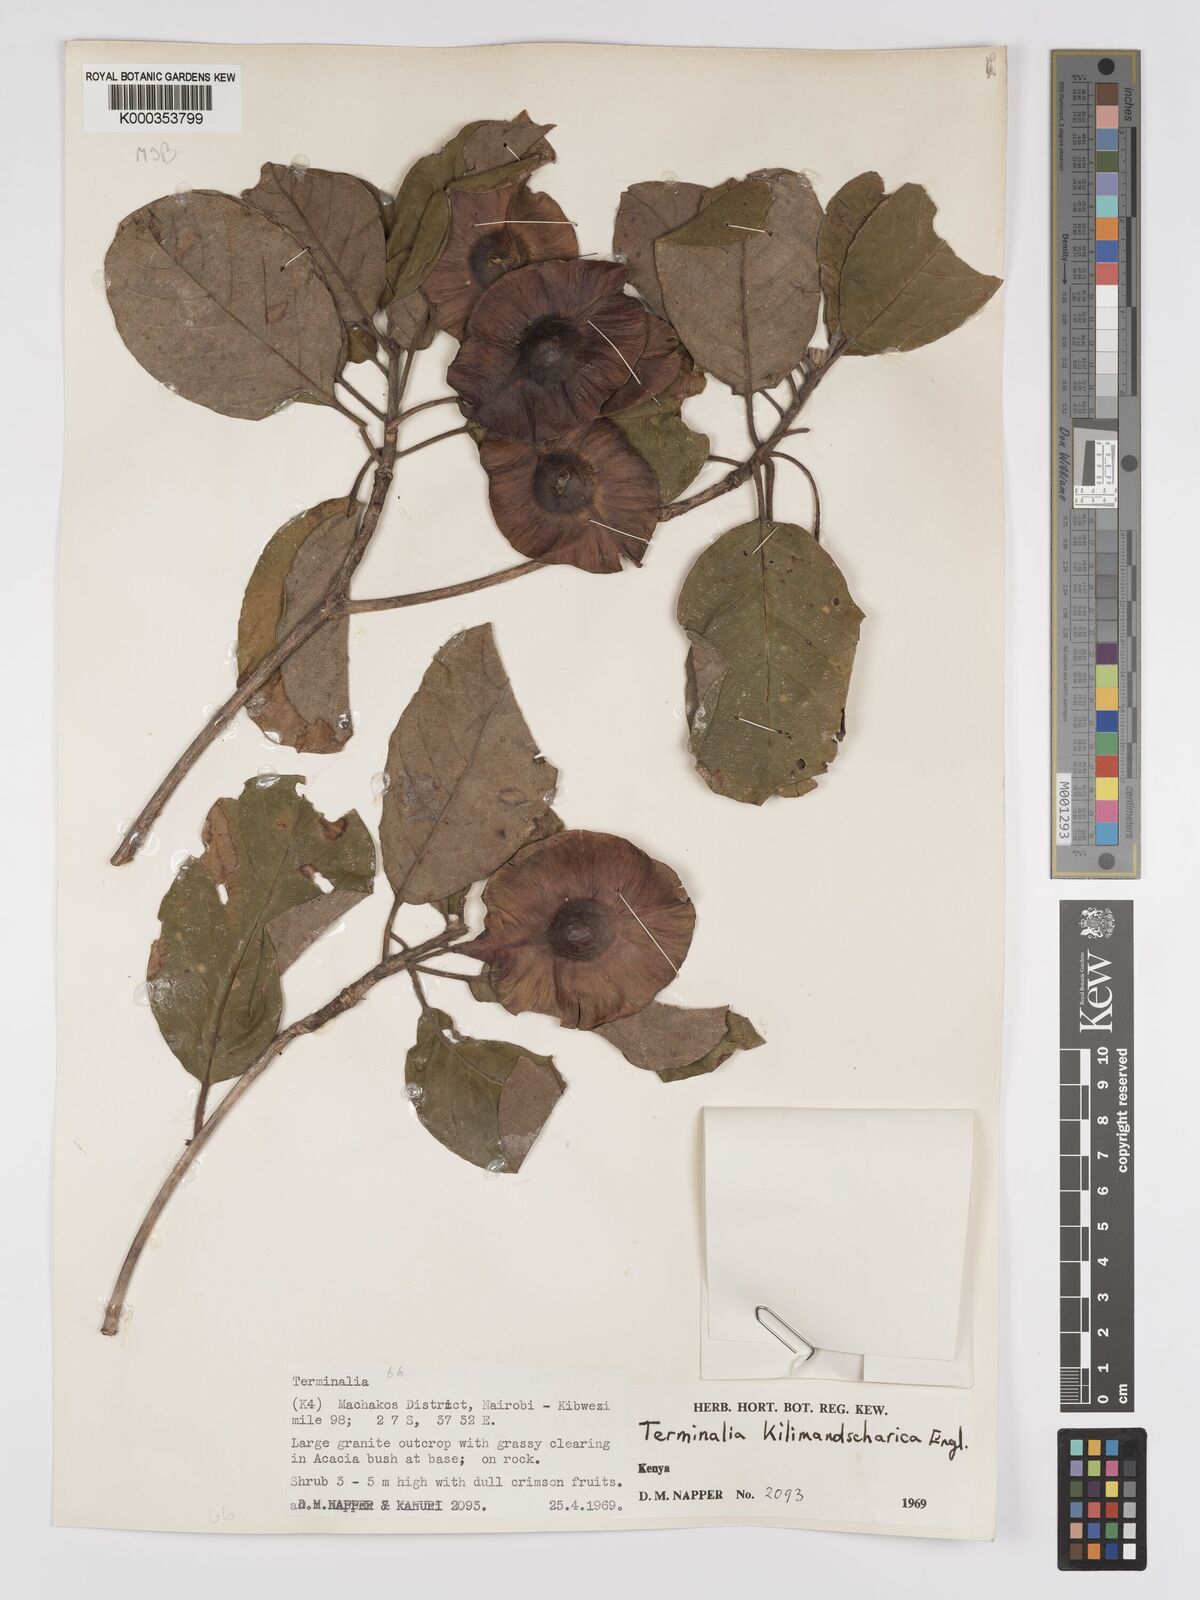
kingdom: Plantae
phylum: Tracheophyta
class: Magnoliopsida
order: Myrtales
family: Combretaceae
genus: Terminalia
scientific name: Terminalia kilimandscharica
